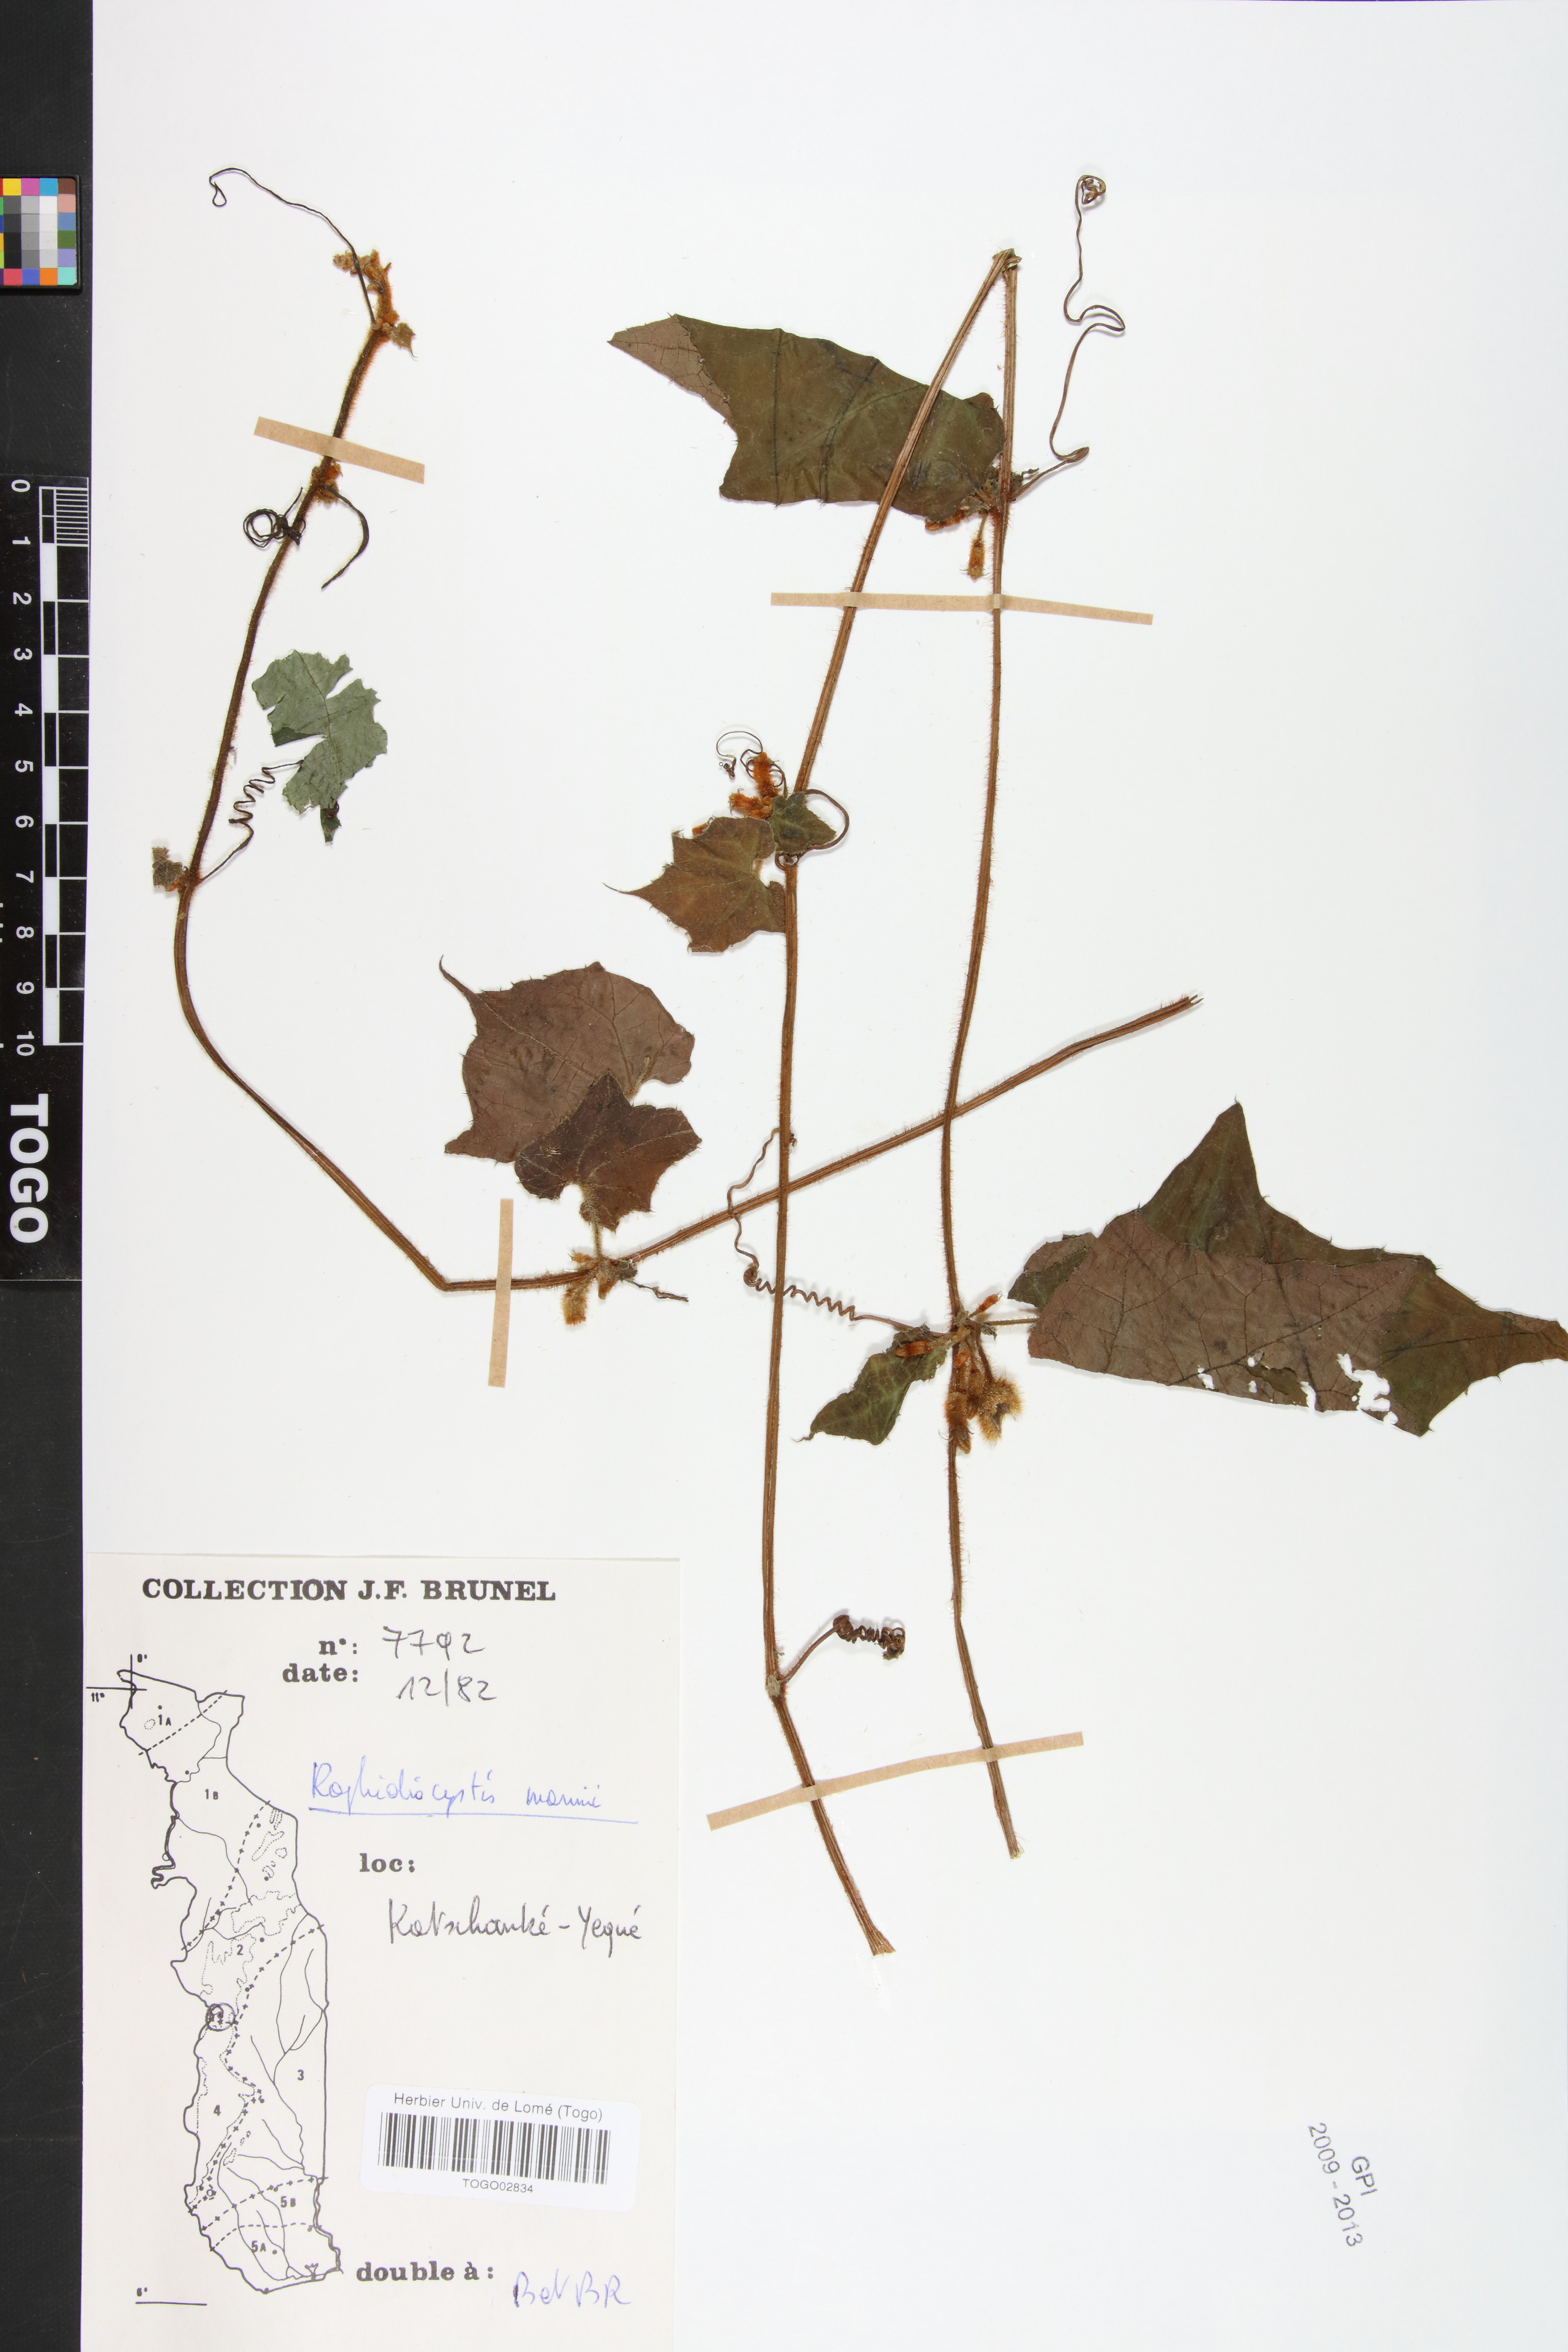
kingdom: Plantae
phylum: Tracheophyta
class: Magnoliopsida
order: Cucurbitales
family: Cucurbitaceae
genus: Raphidiocystis
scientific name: Raphidiocystis mannii
